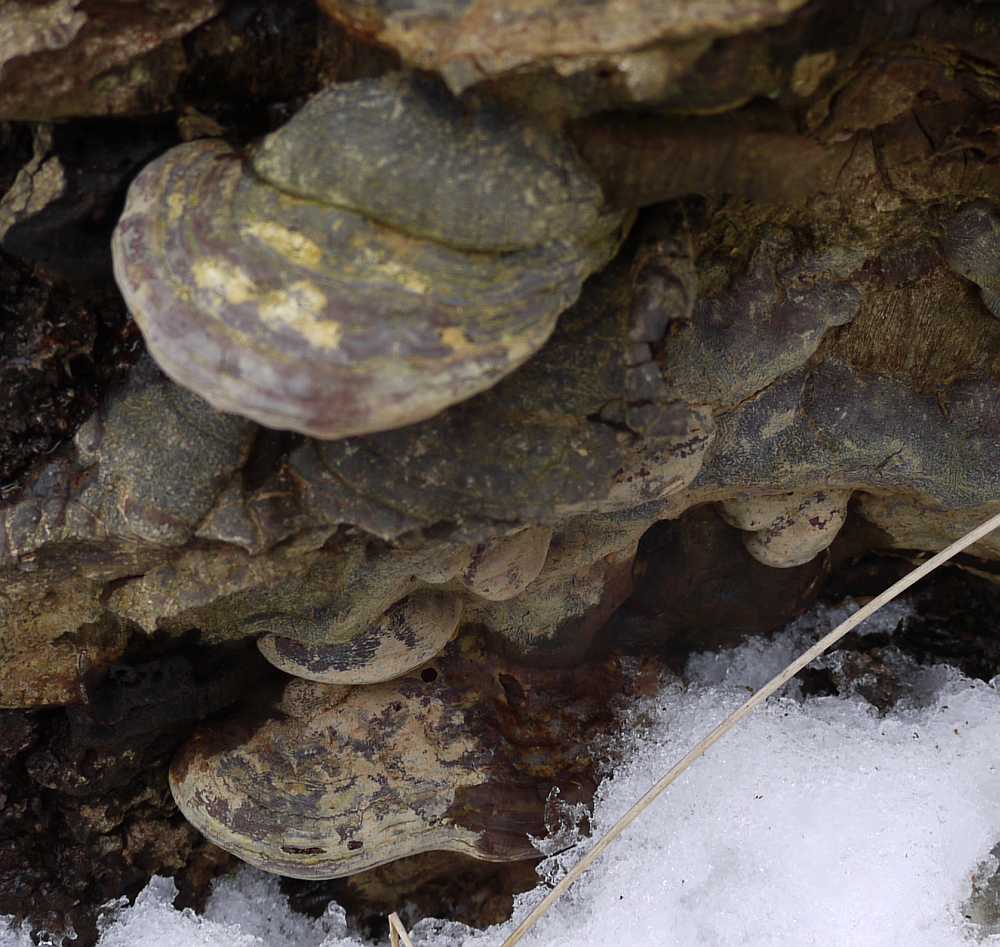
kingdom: Fungi
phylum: Basidiomycota
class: Agaricomycetes
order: Polyporales
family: Polyporaceae
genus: Ganoderma
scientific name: Ganoderma pfeifferi
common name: kobberrød lakporesvamp
